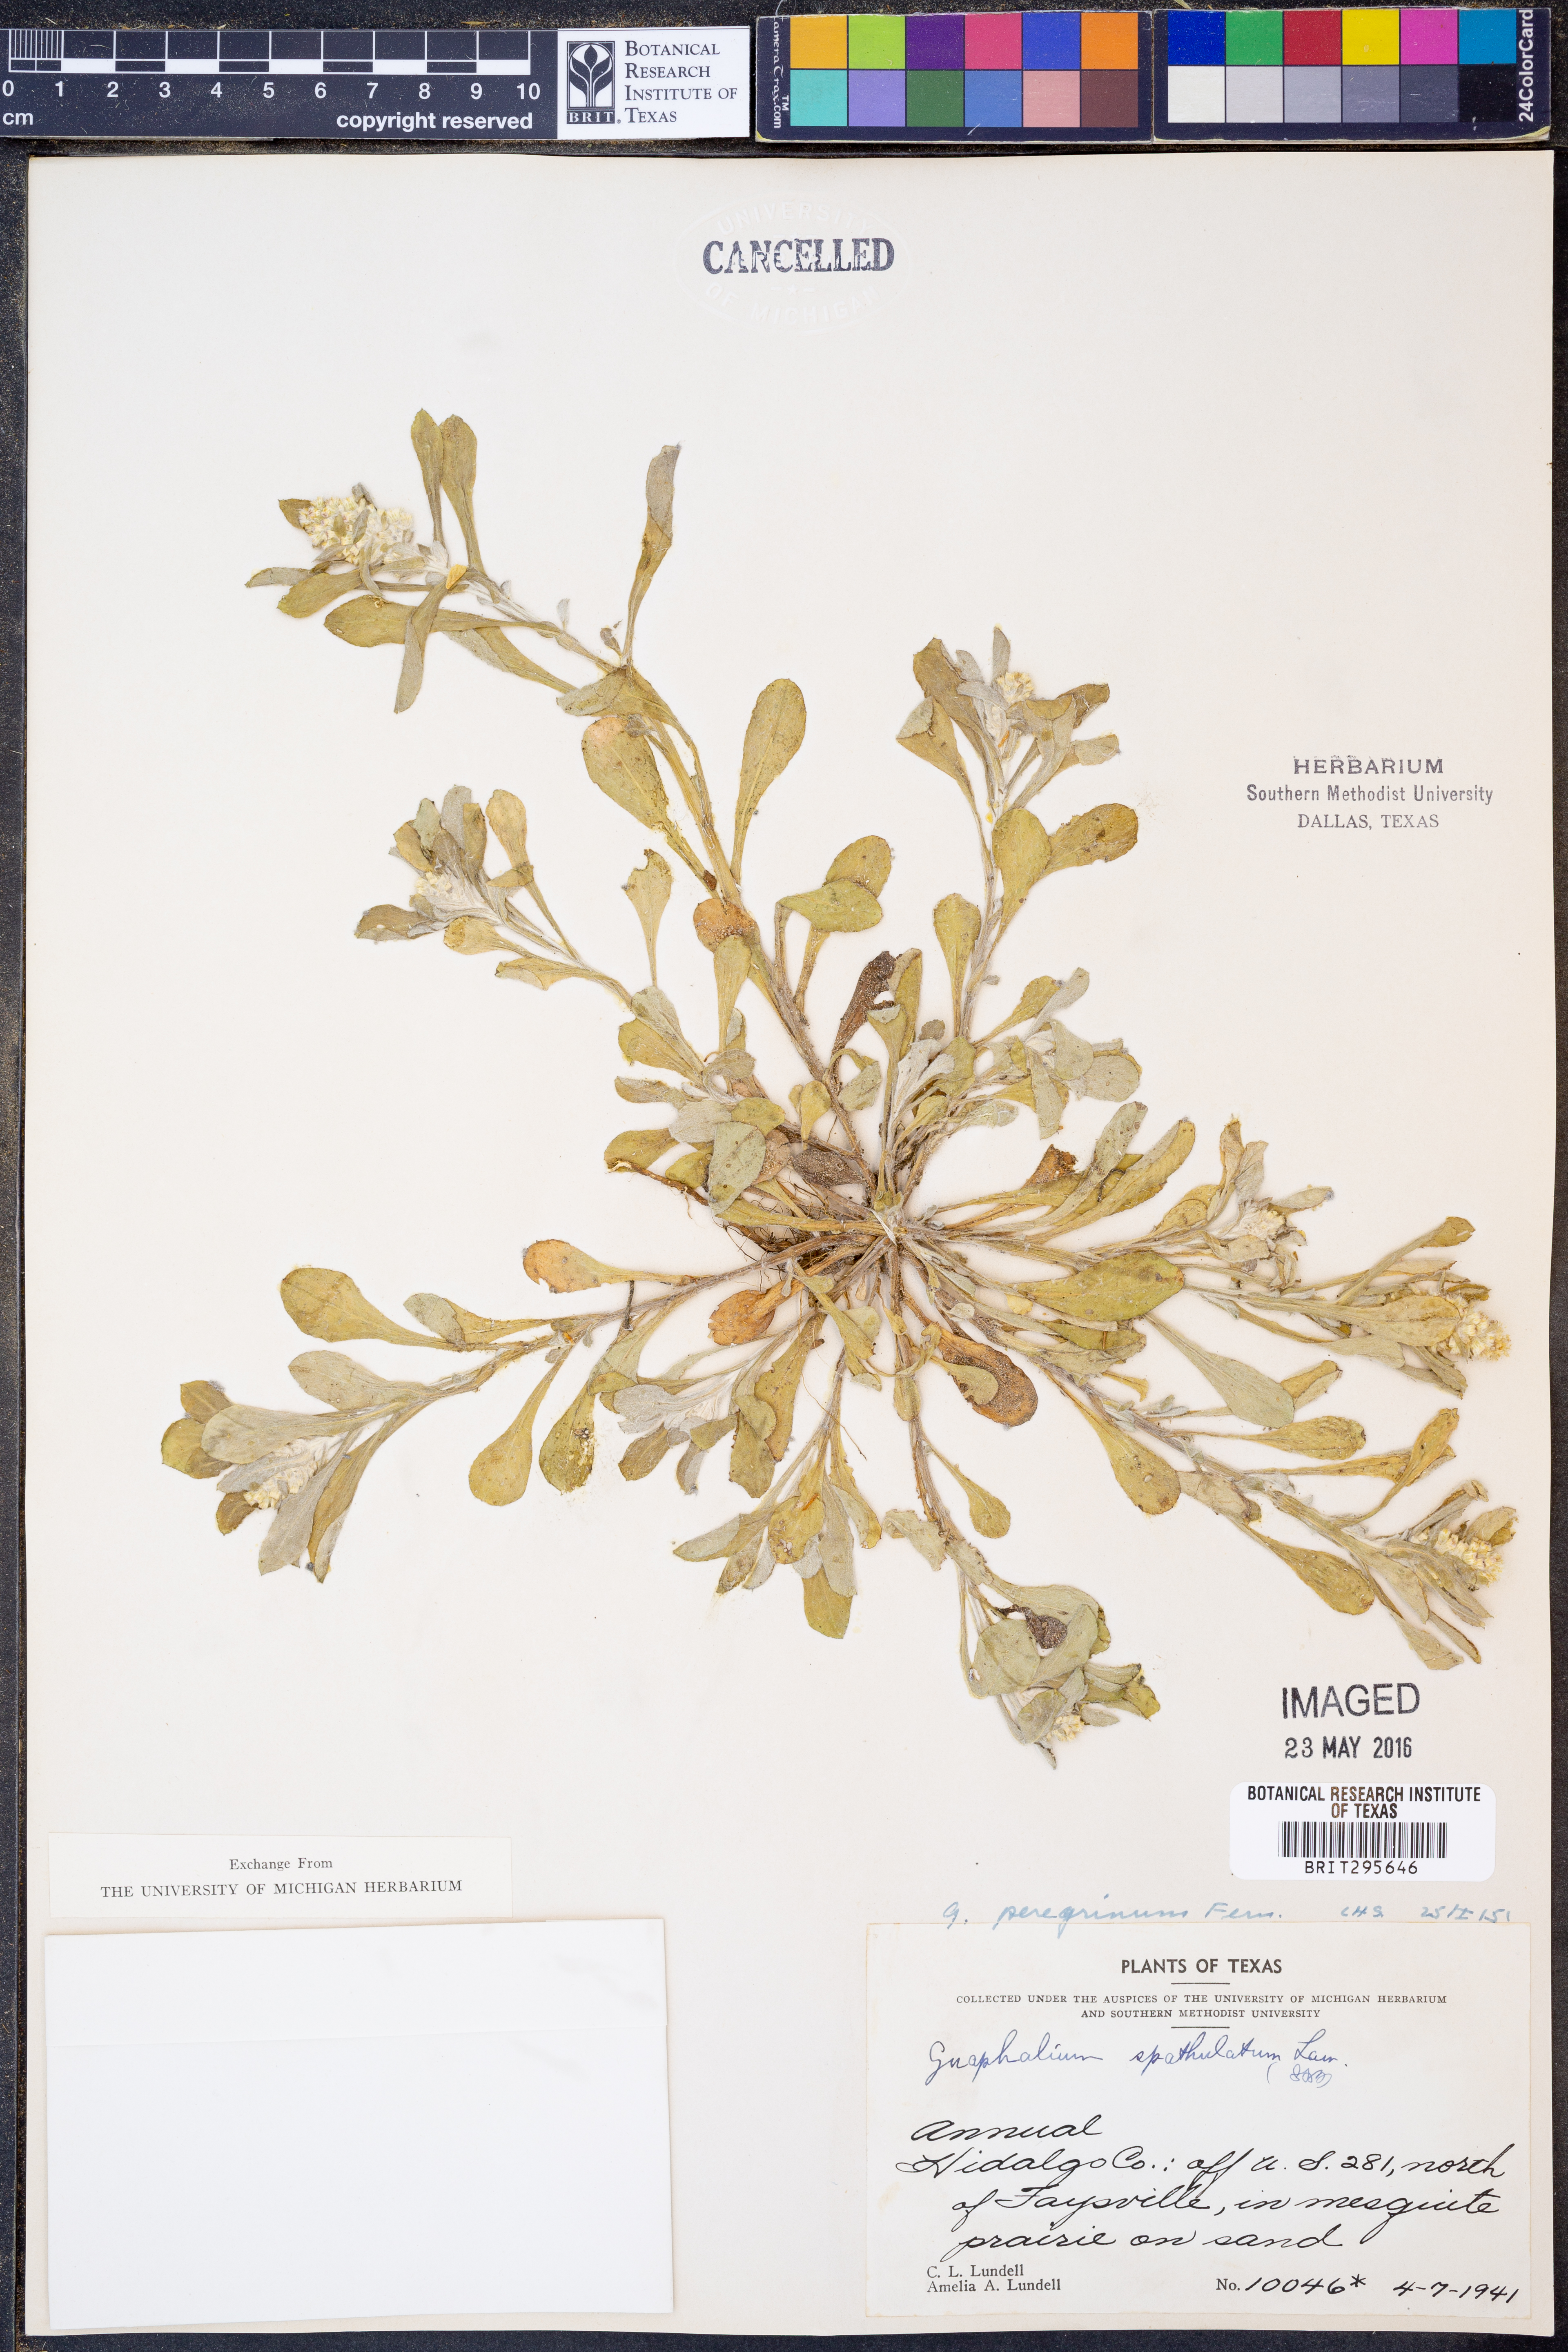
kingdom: Plantae
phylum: Tracheophyta
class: Magnoliopsida
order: Asterales
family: Asteraceae
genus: Gamochaeta
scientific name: Gamochaeta pensylvanica
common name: Pennsylvania everlasting
